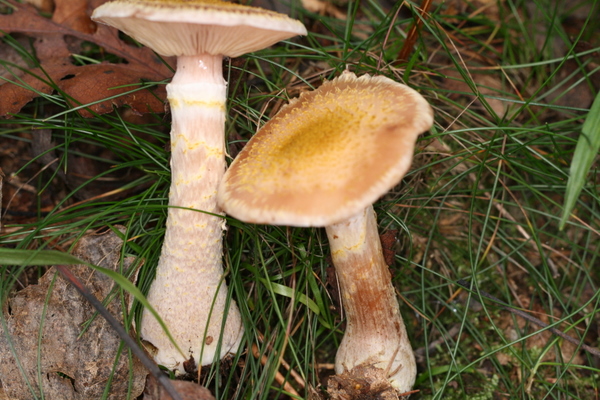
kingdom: Fungi
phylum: Basidiomycota
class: Agaricomycetes
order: Agaricales
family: Physalacriaceae
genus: Armillaria
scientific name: Armillaria lutea
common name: køllestokket honningsvamp
